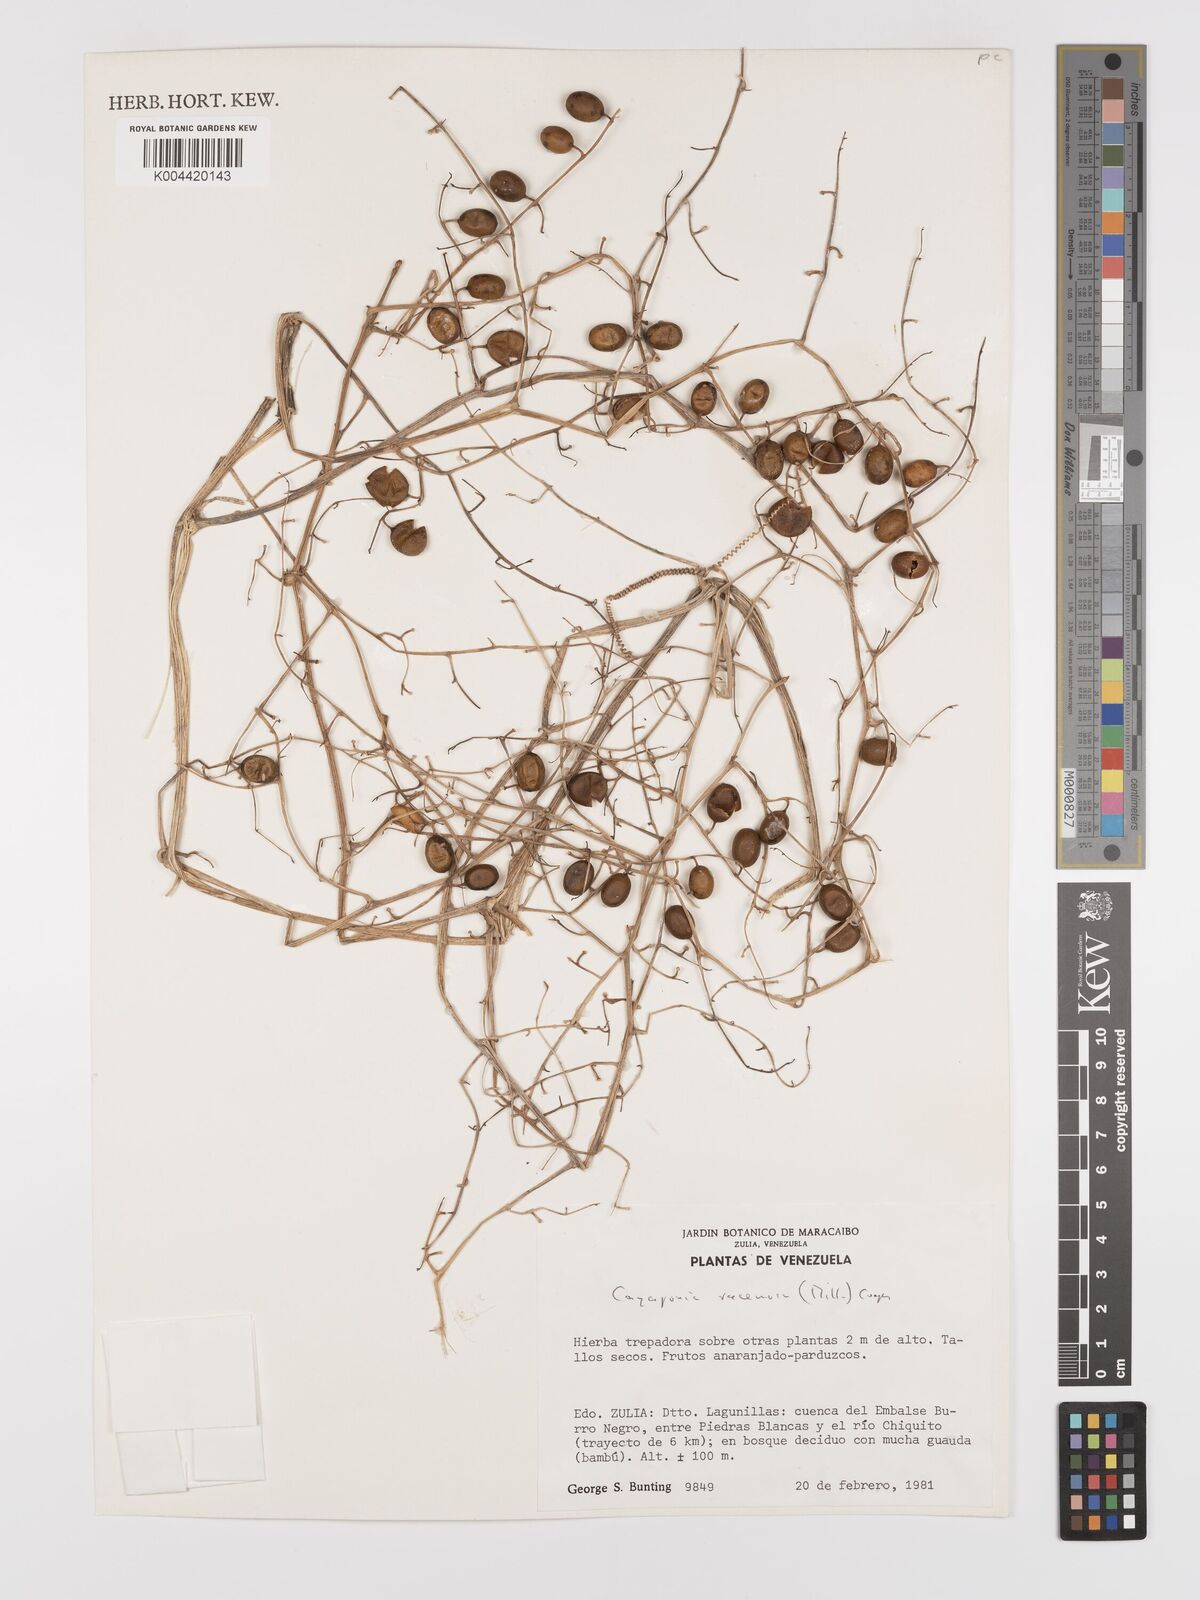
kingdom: Plantae
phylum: Tracheophyta
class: Magnoliopsida
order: Cucurbitales
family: Cucurbitaceae
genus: Cayaponia
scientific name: Cayaponia racemosa
